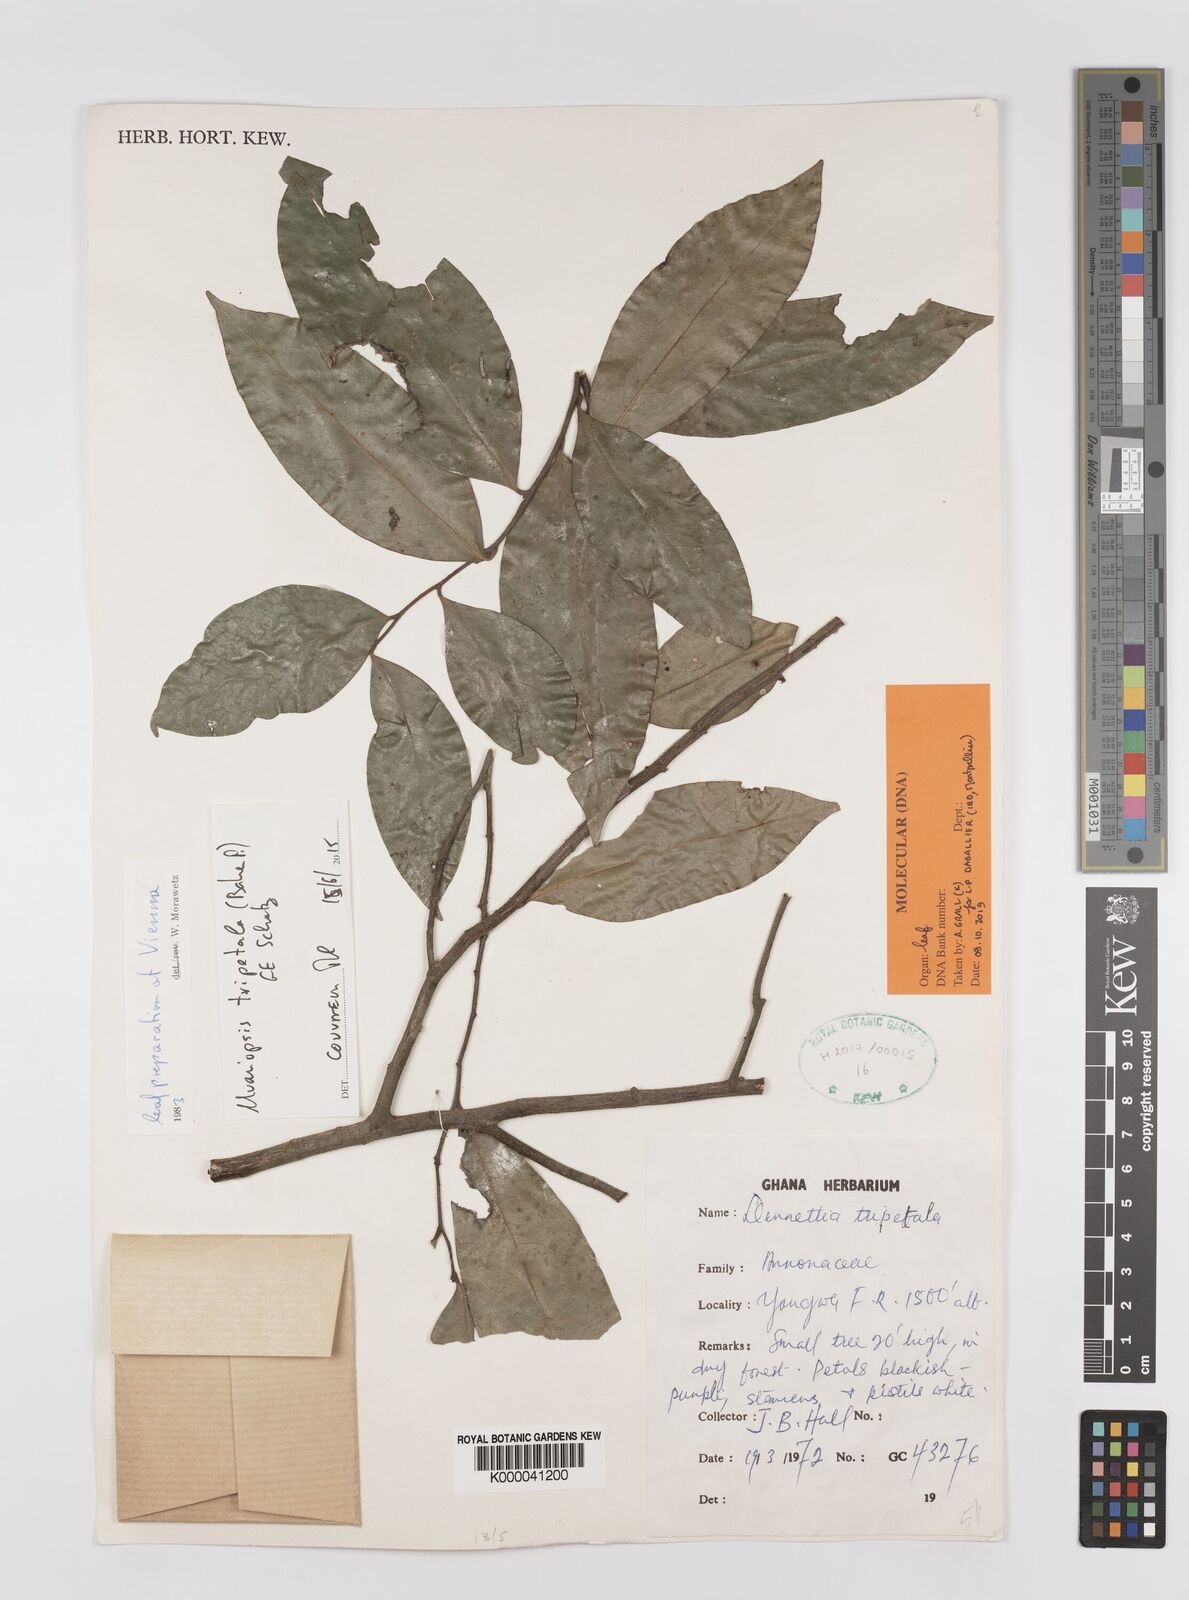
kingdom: Plantae
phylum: Tracheophyta
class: Magnoliopsida
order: Magnoliales
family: Annonaceae
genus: Uvariopsis
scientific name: Uvariopsis tripetala
